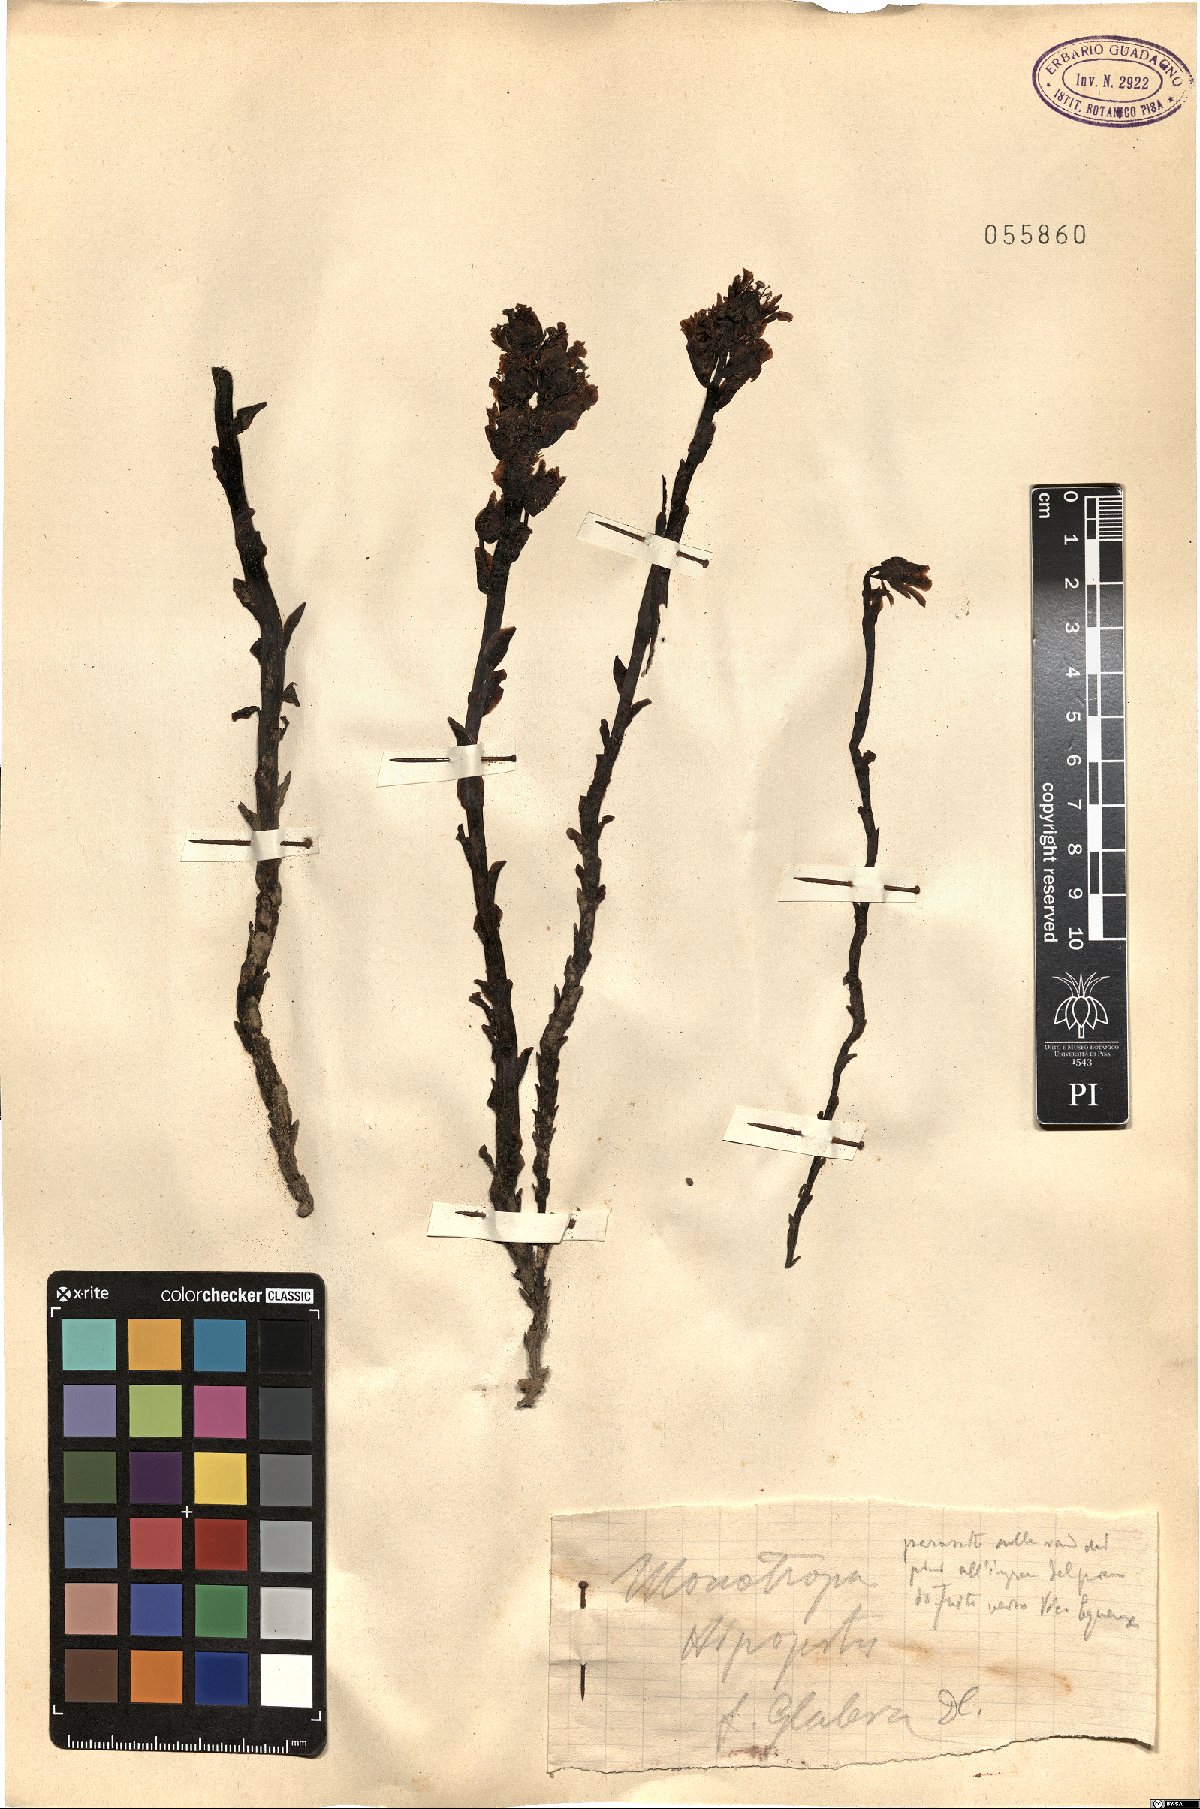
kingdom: Plantae
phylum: Tracheophyta
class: Magnoliopsida
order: Ericales
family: Ericaceae
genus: Hypopitys
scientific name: Hypopitys hypophegea
